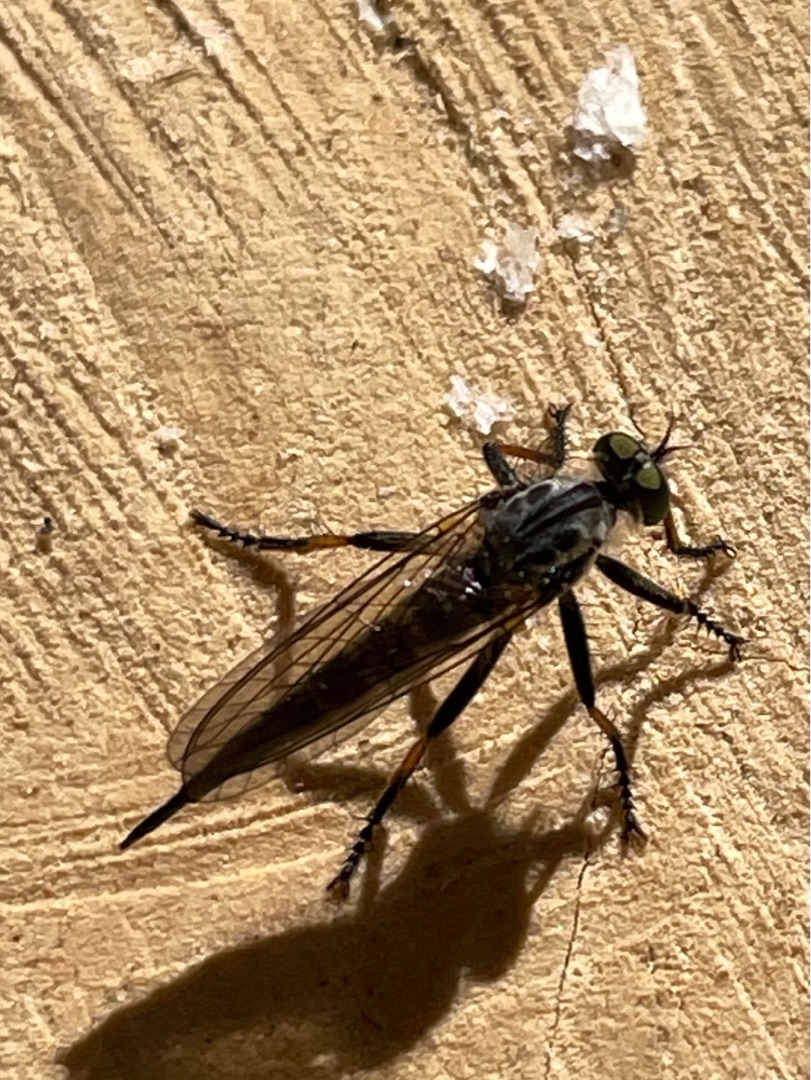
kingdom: Animalia
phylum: Arthropoda
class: Insecta
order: Diptera
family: Asilidae
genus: Neoitamus
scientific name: Neoitamus cyanurus
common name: Sortfodet skovrovflue
